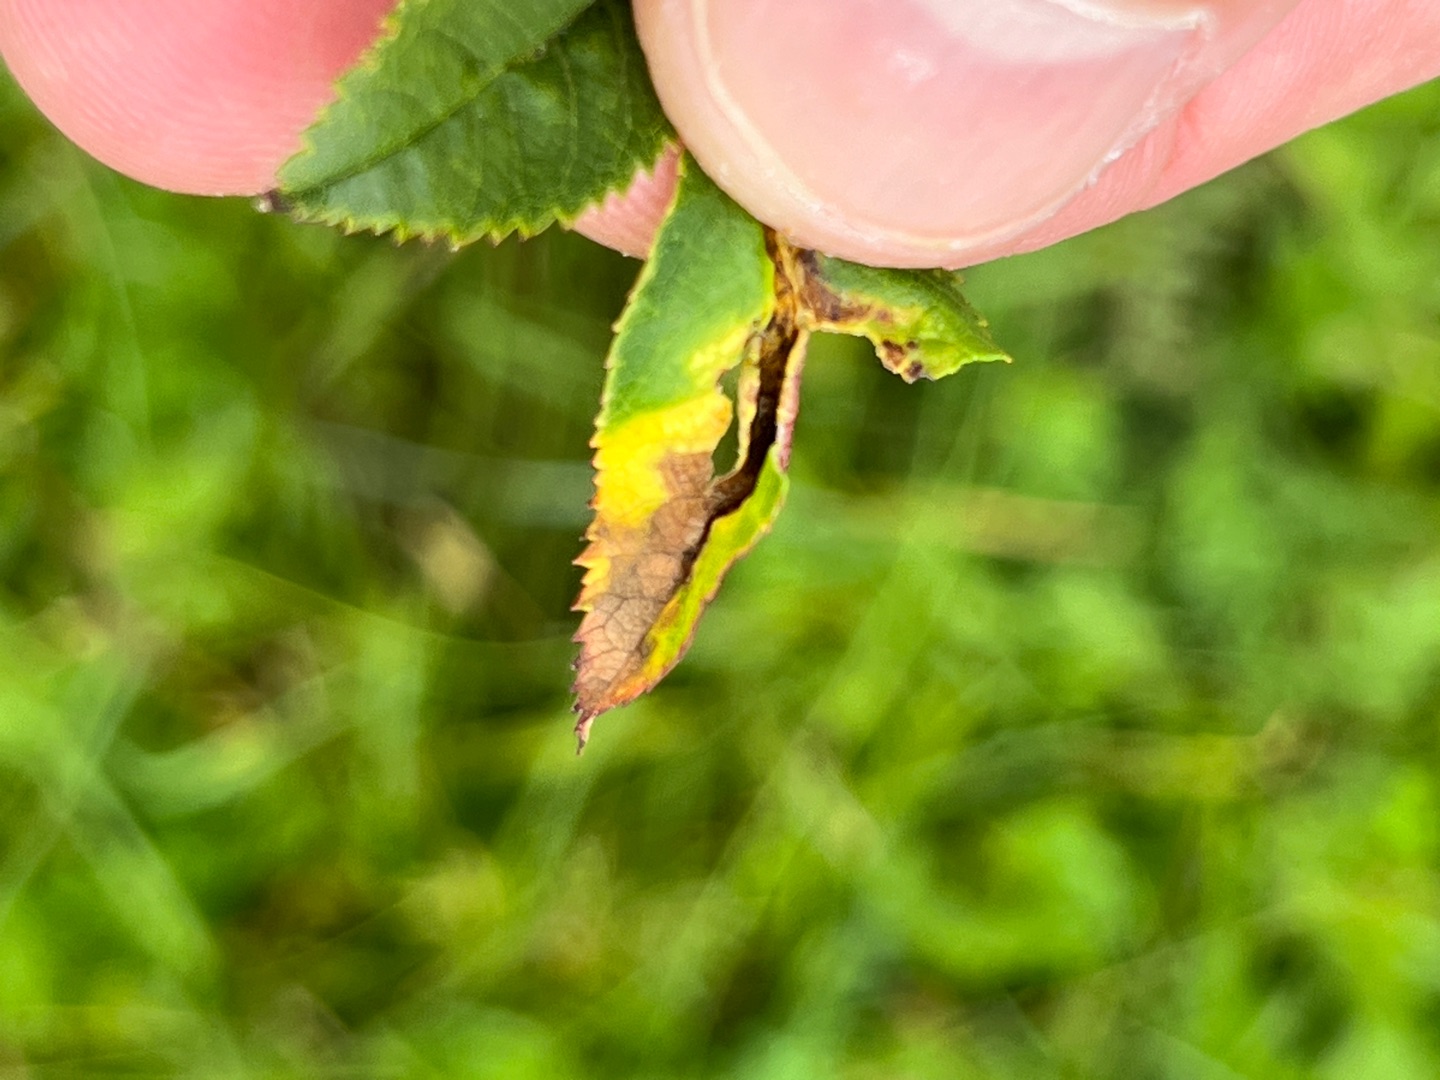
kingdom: Animalia
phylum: Arthropoda
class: Insecta
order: Diptera
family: Cecidomyiidae
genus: Wachtliella
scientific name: Wachtliella rosae
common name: Rosenbladgalmyg
